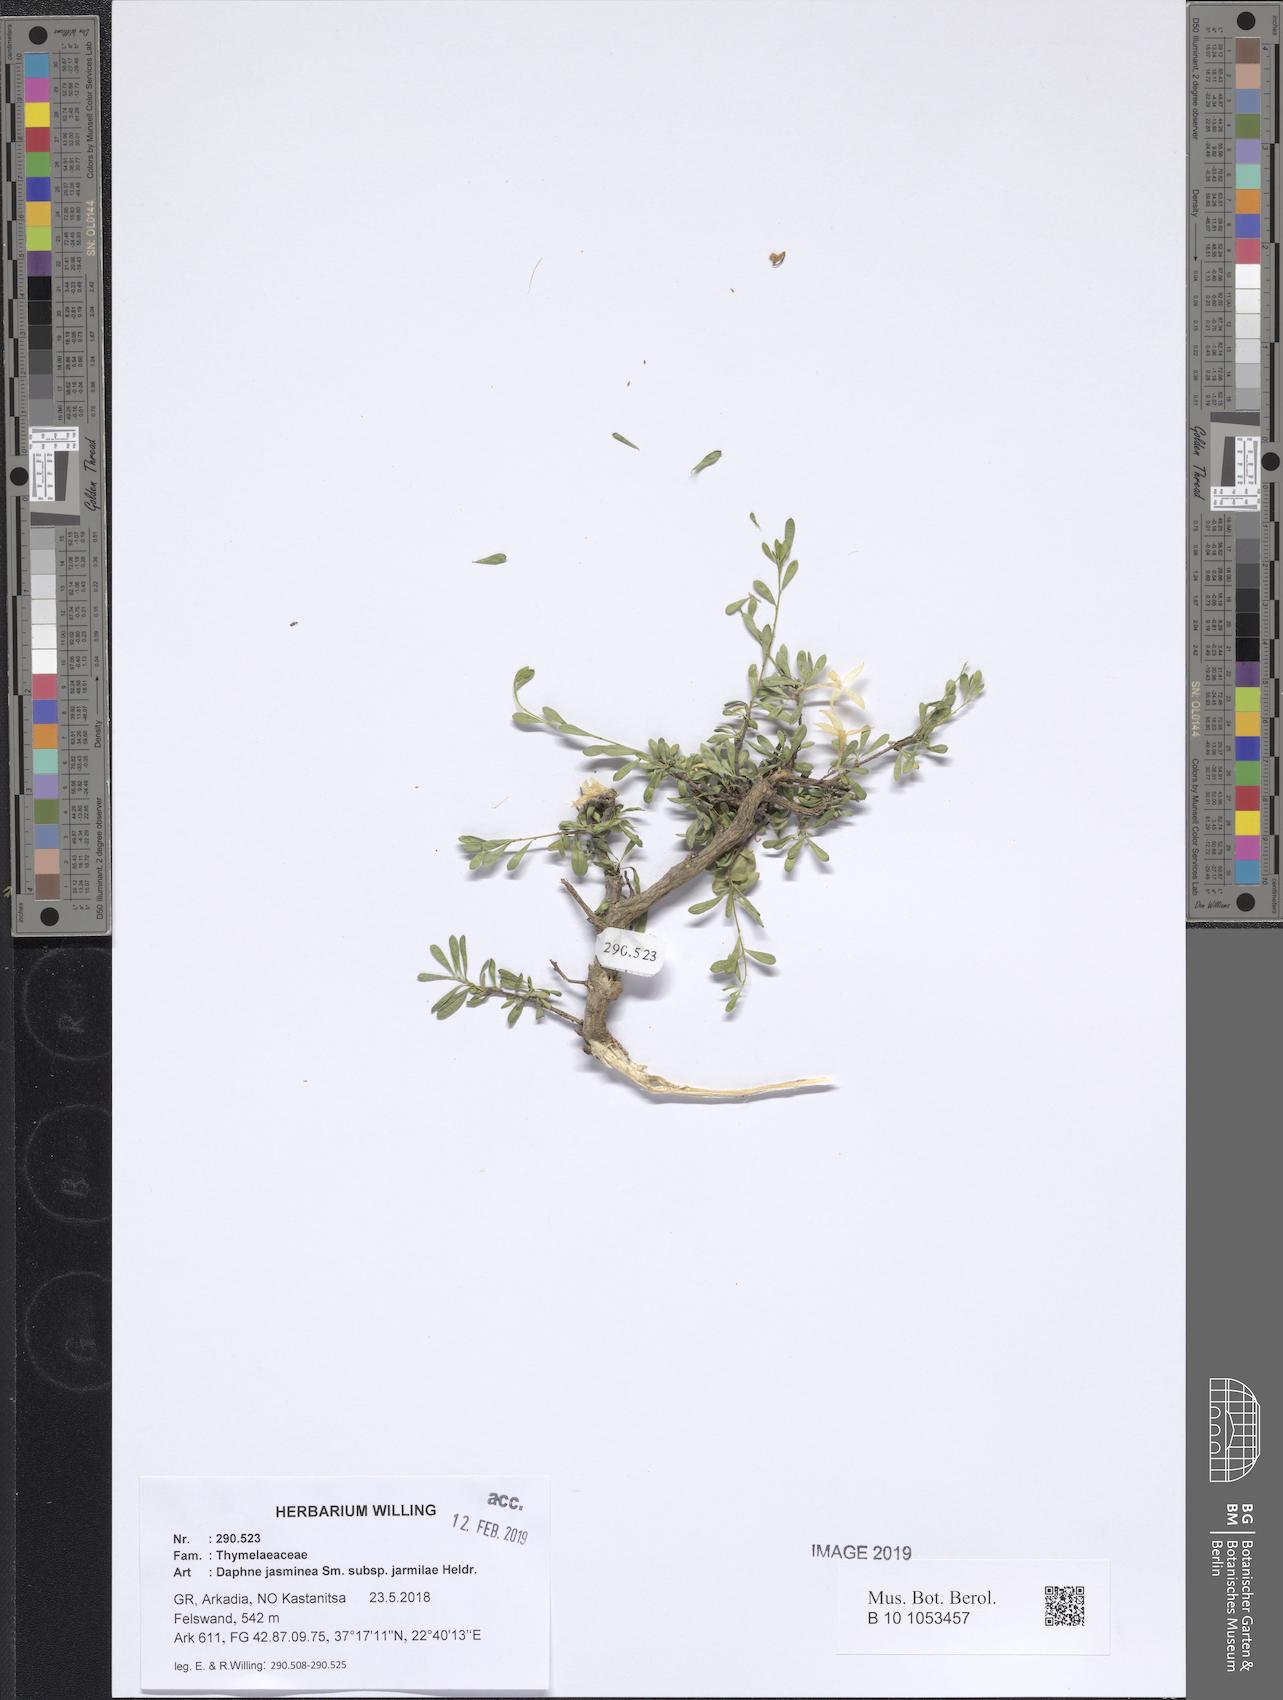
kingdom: Plantae
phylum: Tracheophyta
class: Magnoliopsida
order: Malvales
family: Thymelaeaceae
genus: Daphne
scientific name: Daphne jasminea
